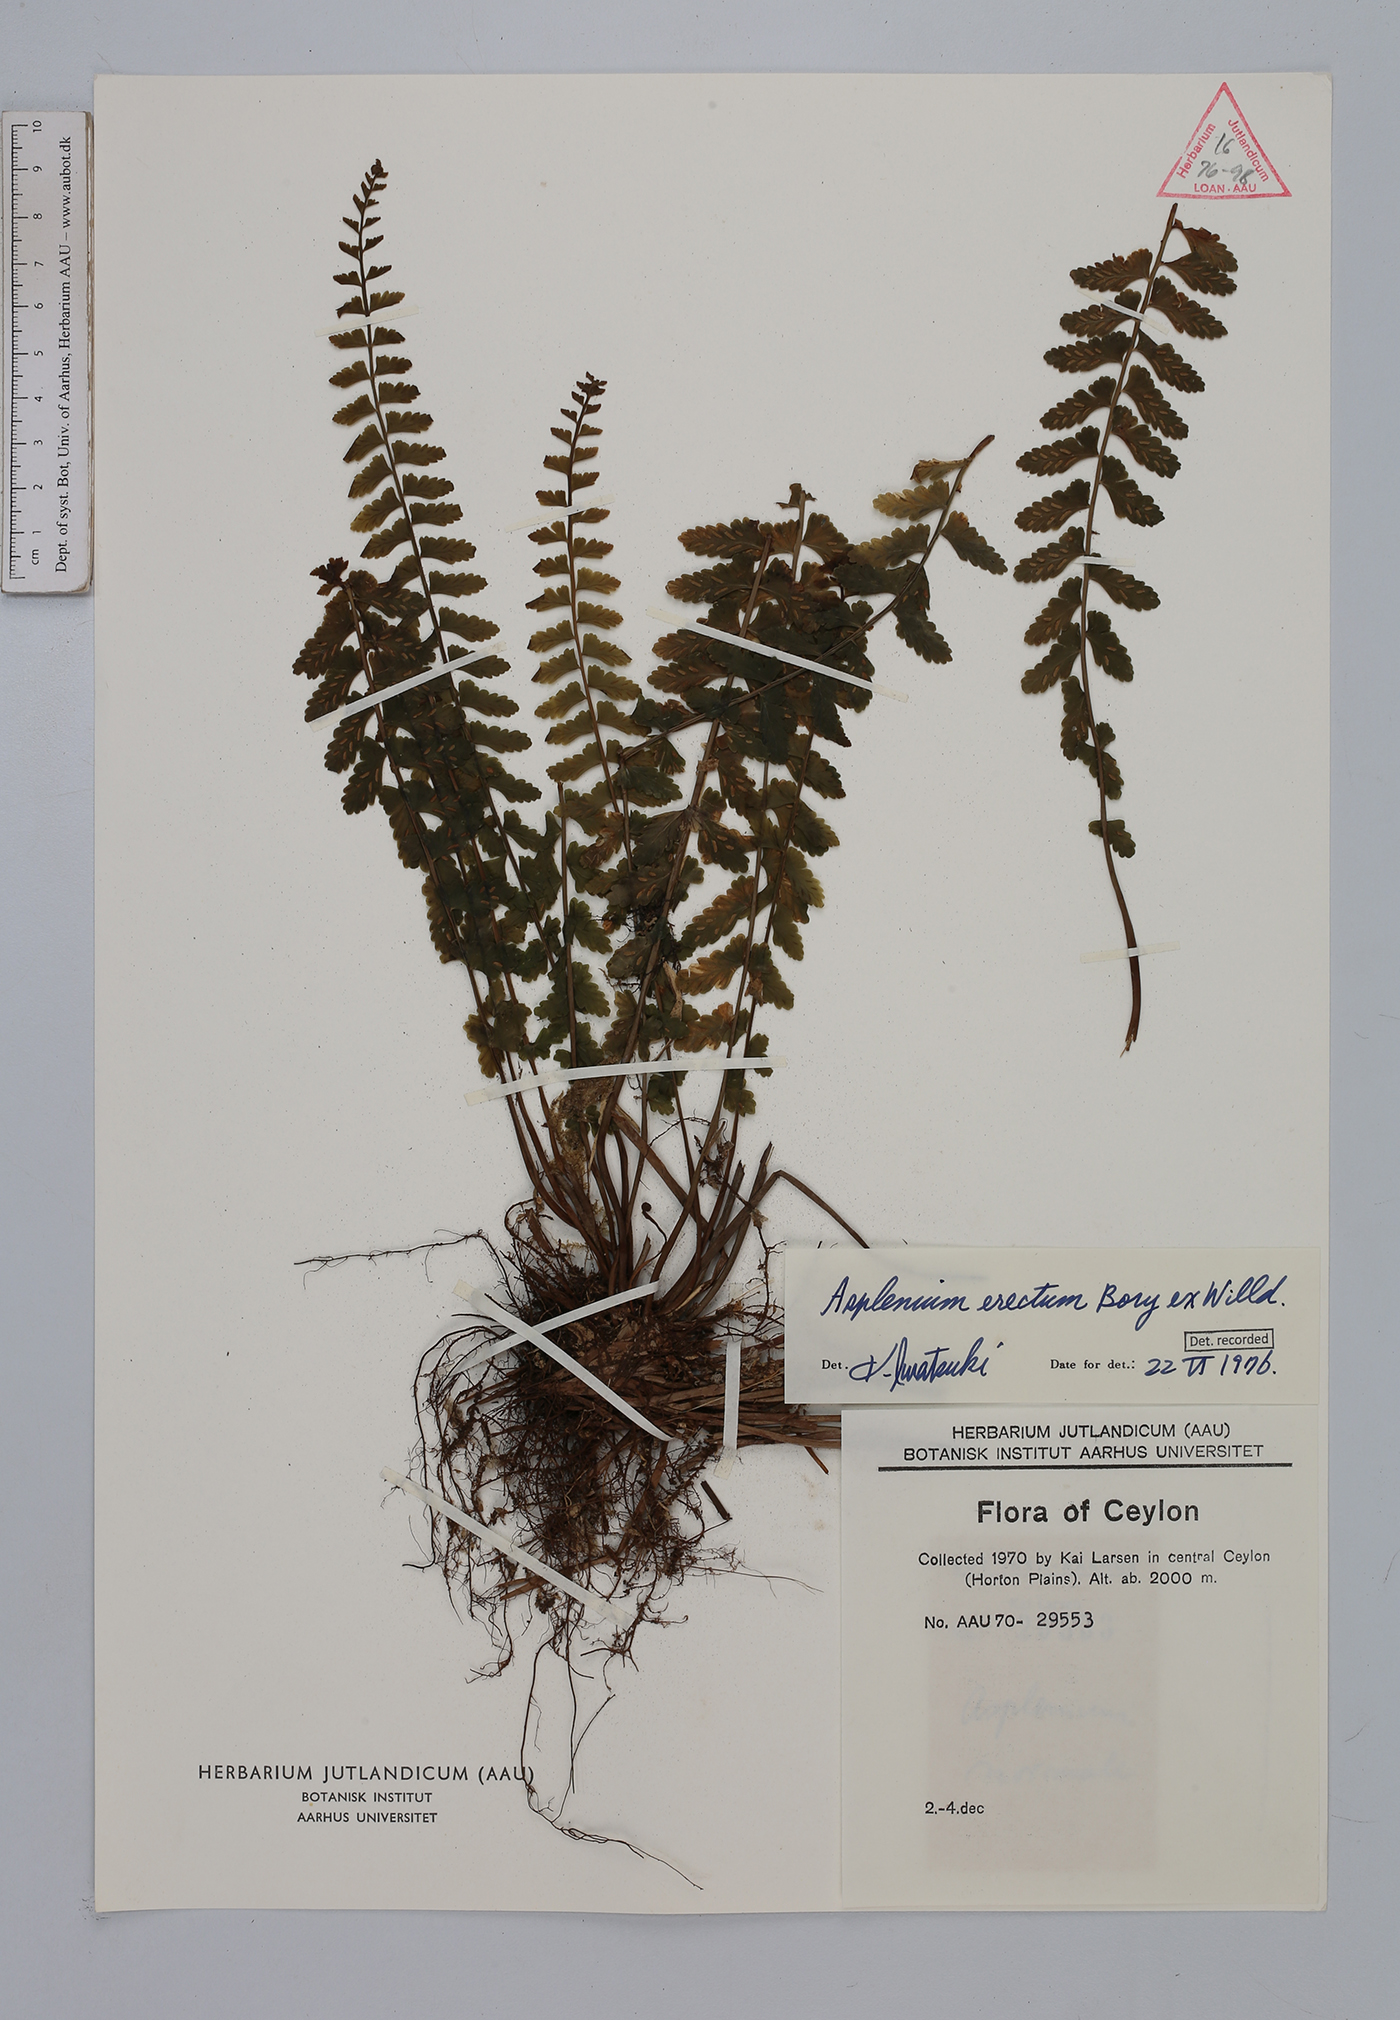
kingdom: Plantae
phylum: Tracheophyta
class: Polypodiopsida
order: Polypodiales
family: Aspleniaceae
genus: Asplenium
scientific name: Asplenium erectum
